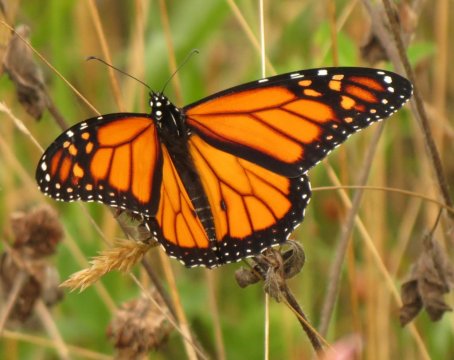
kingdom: Animalia
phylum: Arthropoda
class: Insecta
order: Lepidoptera
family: Nymphalidae
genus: Danaus
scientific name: Danaus plexippus
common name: Monarch
